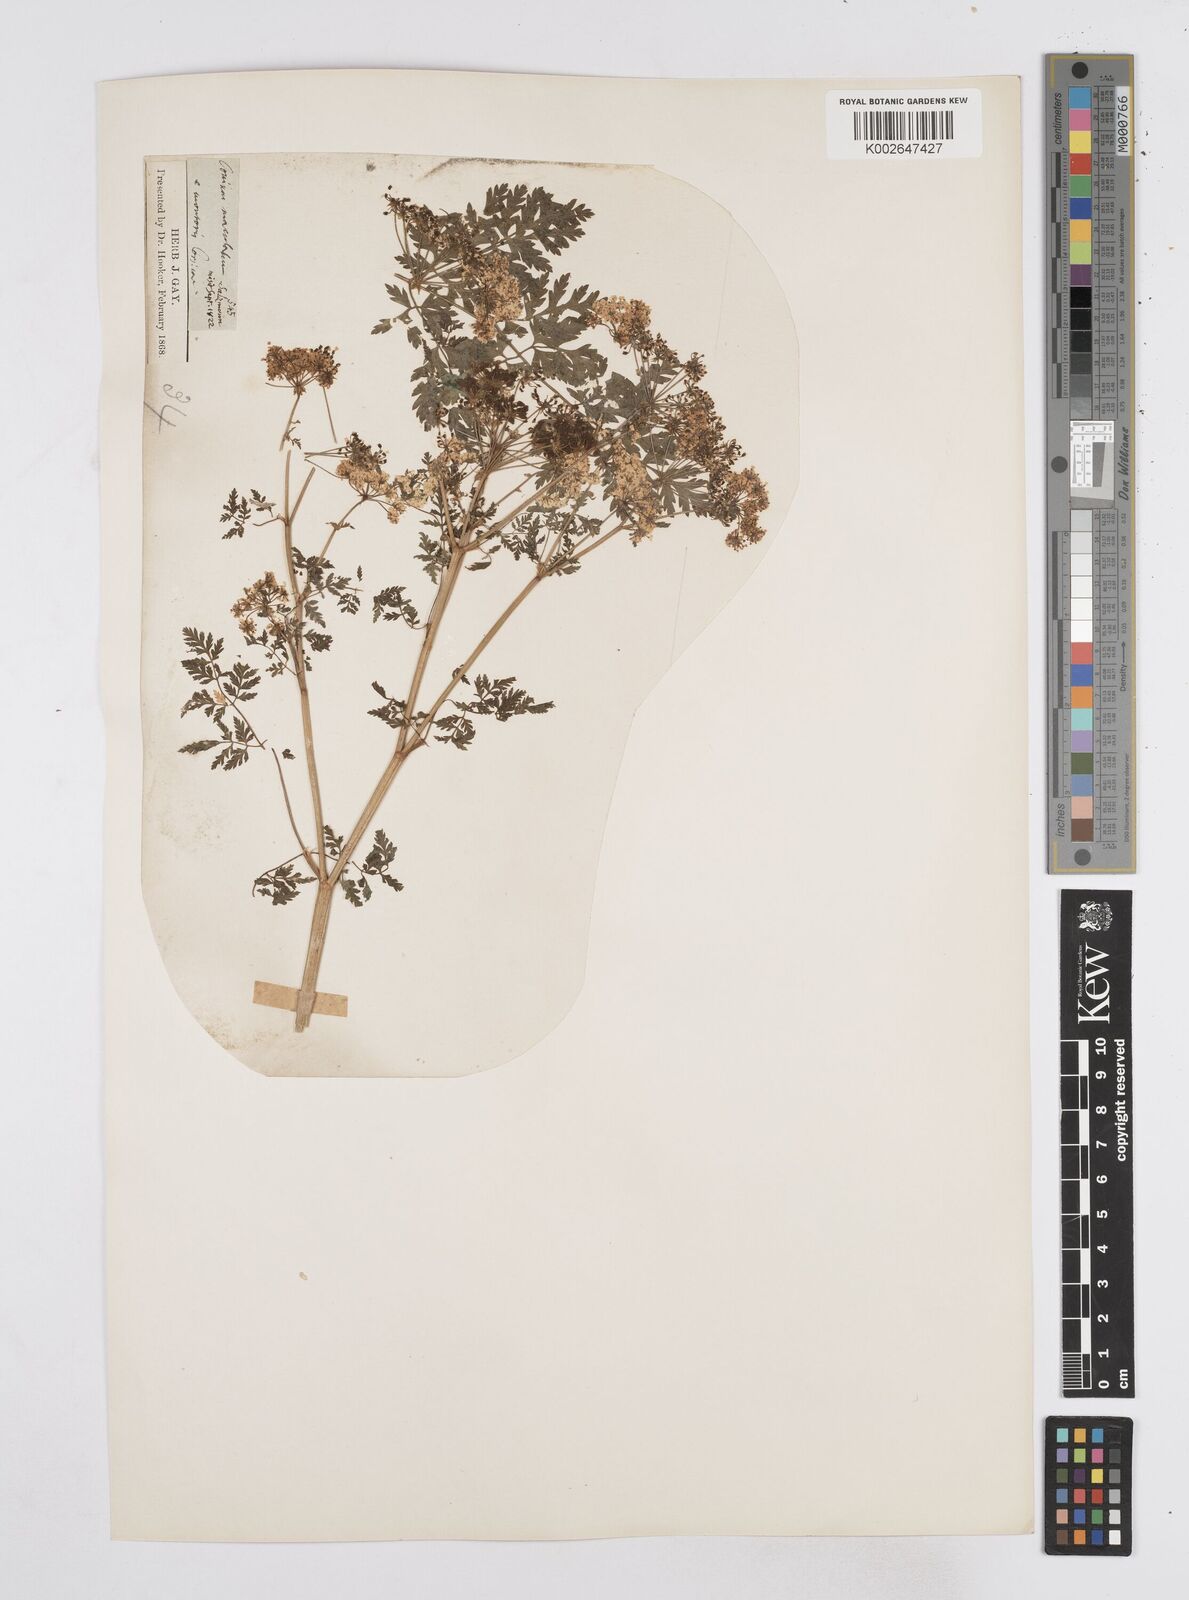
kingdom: Plantae
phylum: Tracheophyta
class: Magnoliopsida
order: Apiales
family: Apiaceae
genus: Conium
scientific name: Conium maculatum
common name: Hemlock
